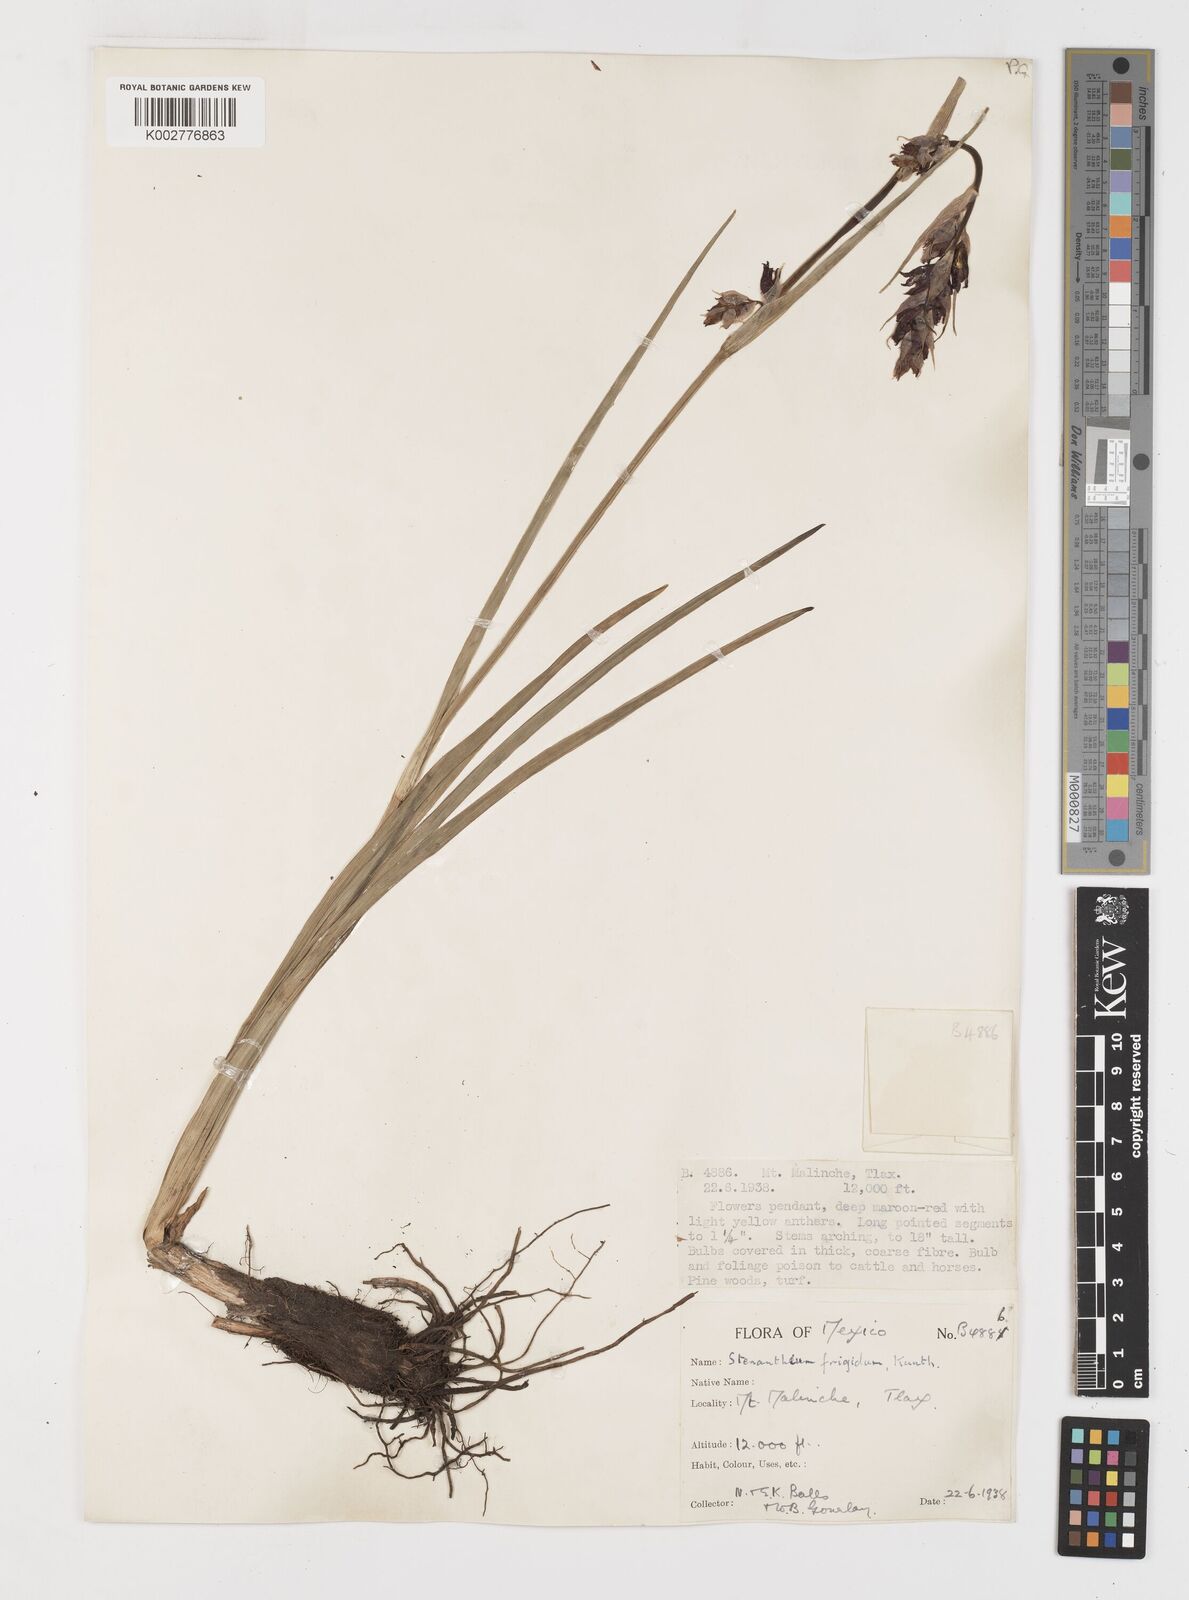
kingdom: Plantae
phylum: Tracheophyta
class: Liliopsida
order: Liliales
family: Melanthiaceae
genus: Anticlea
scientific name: Anticlea frigida
